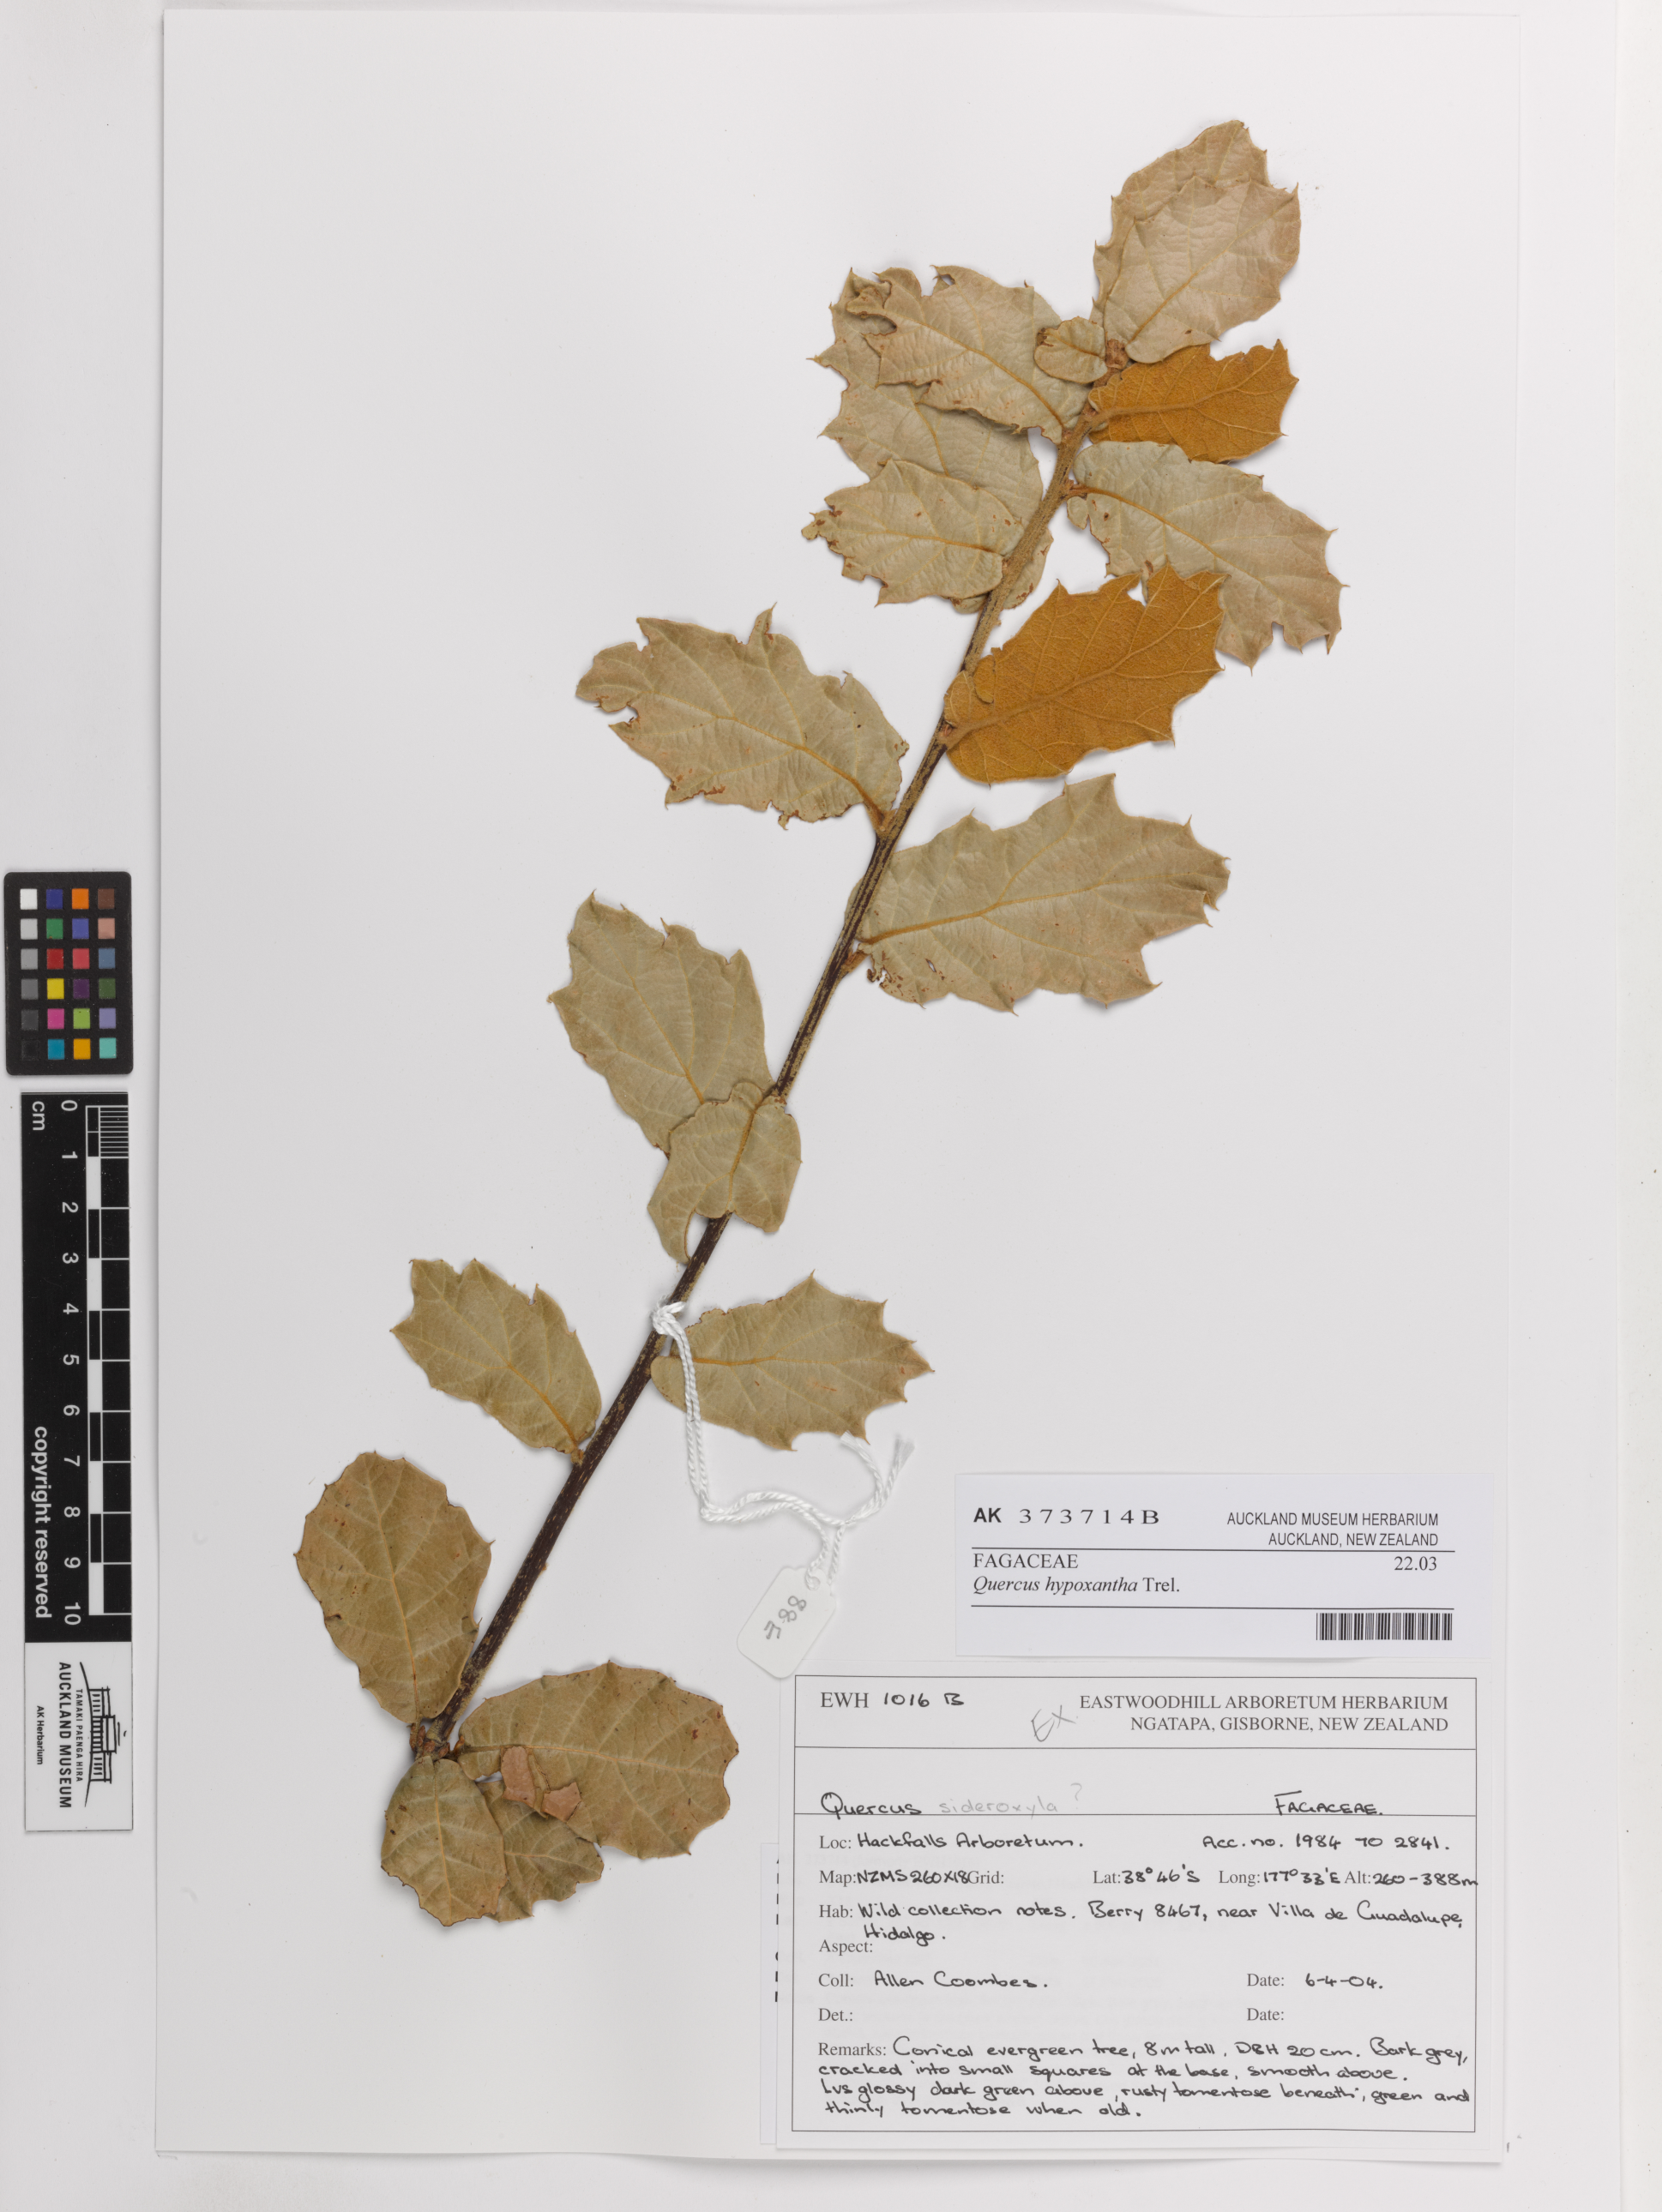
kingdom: Plantae
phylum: Tracheophyta
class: Magnoliopsida
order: Fagales
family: Fagaceae
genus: Quercus
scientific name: Quercus hypoxantha
